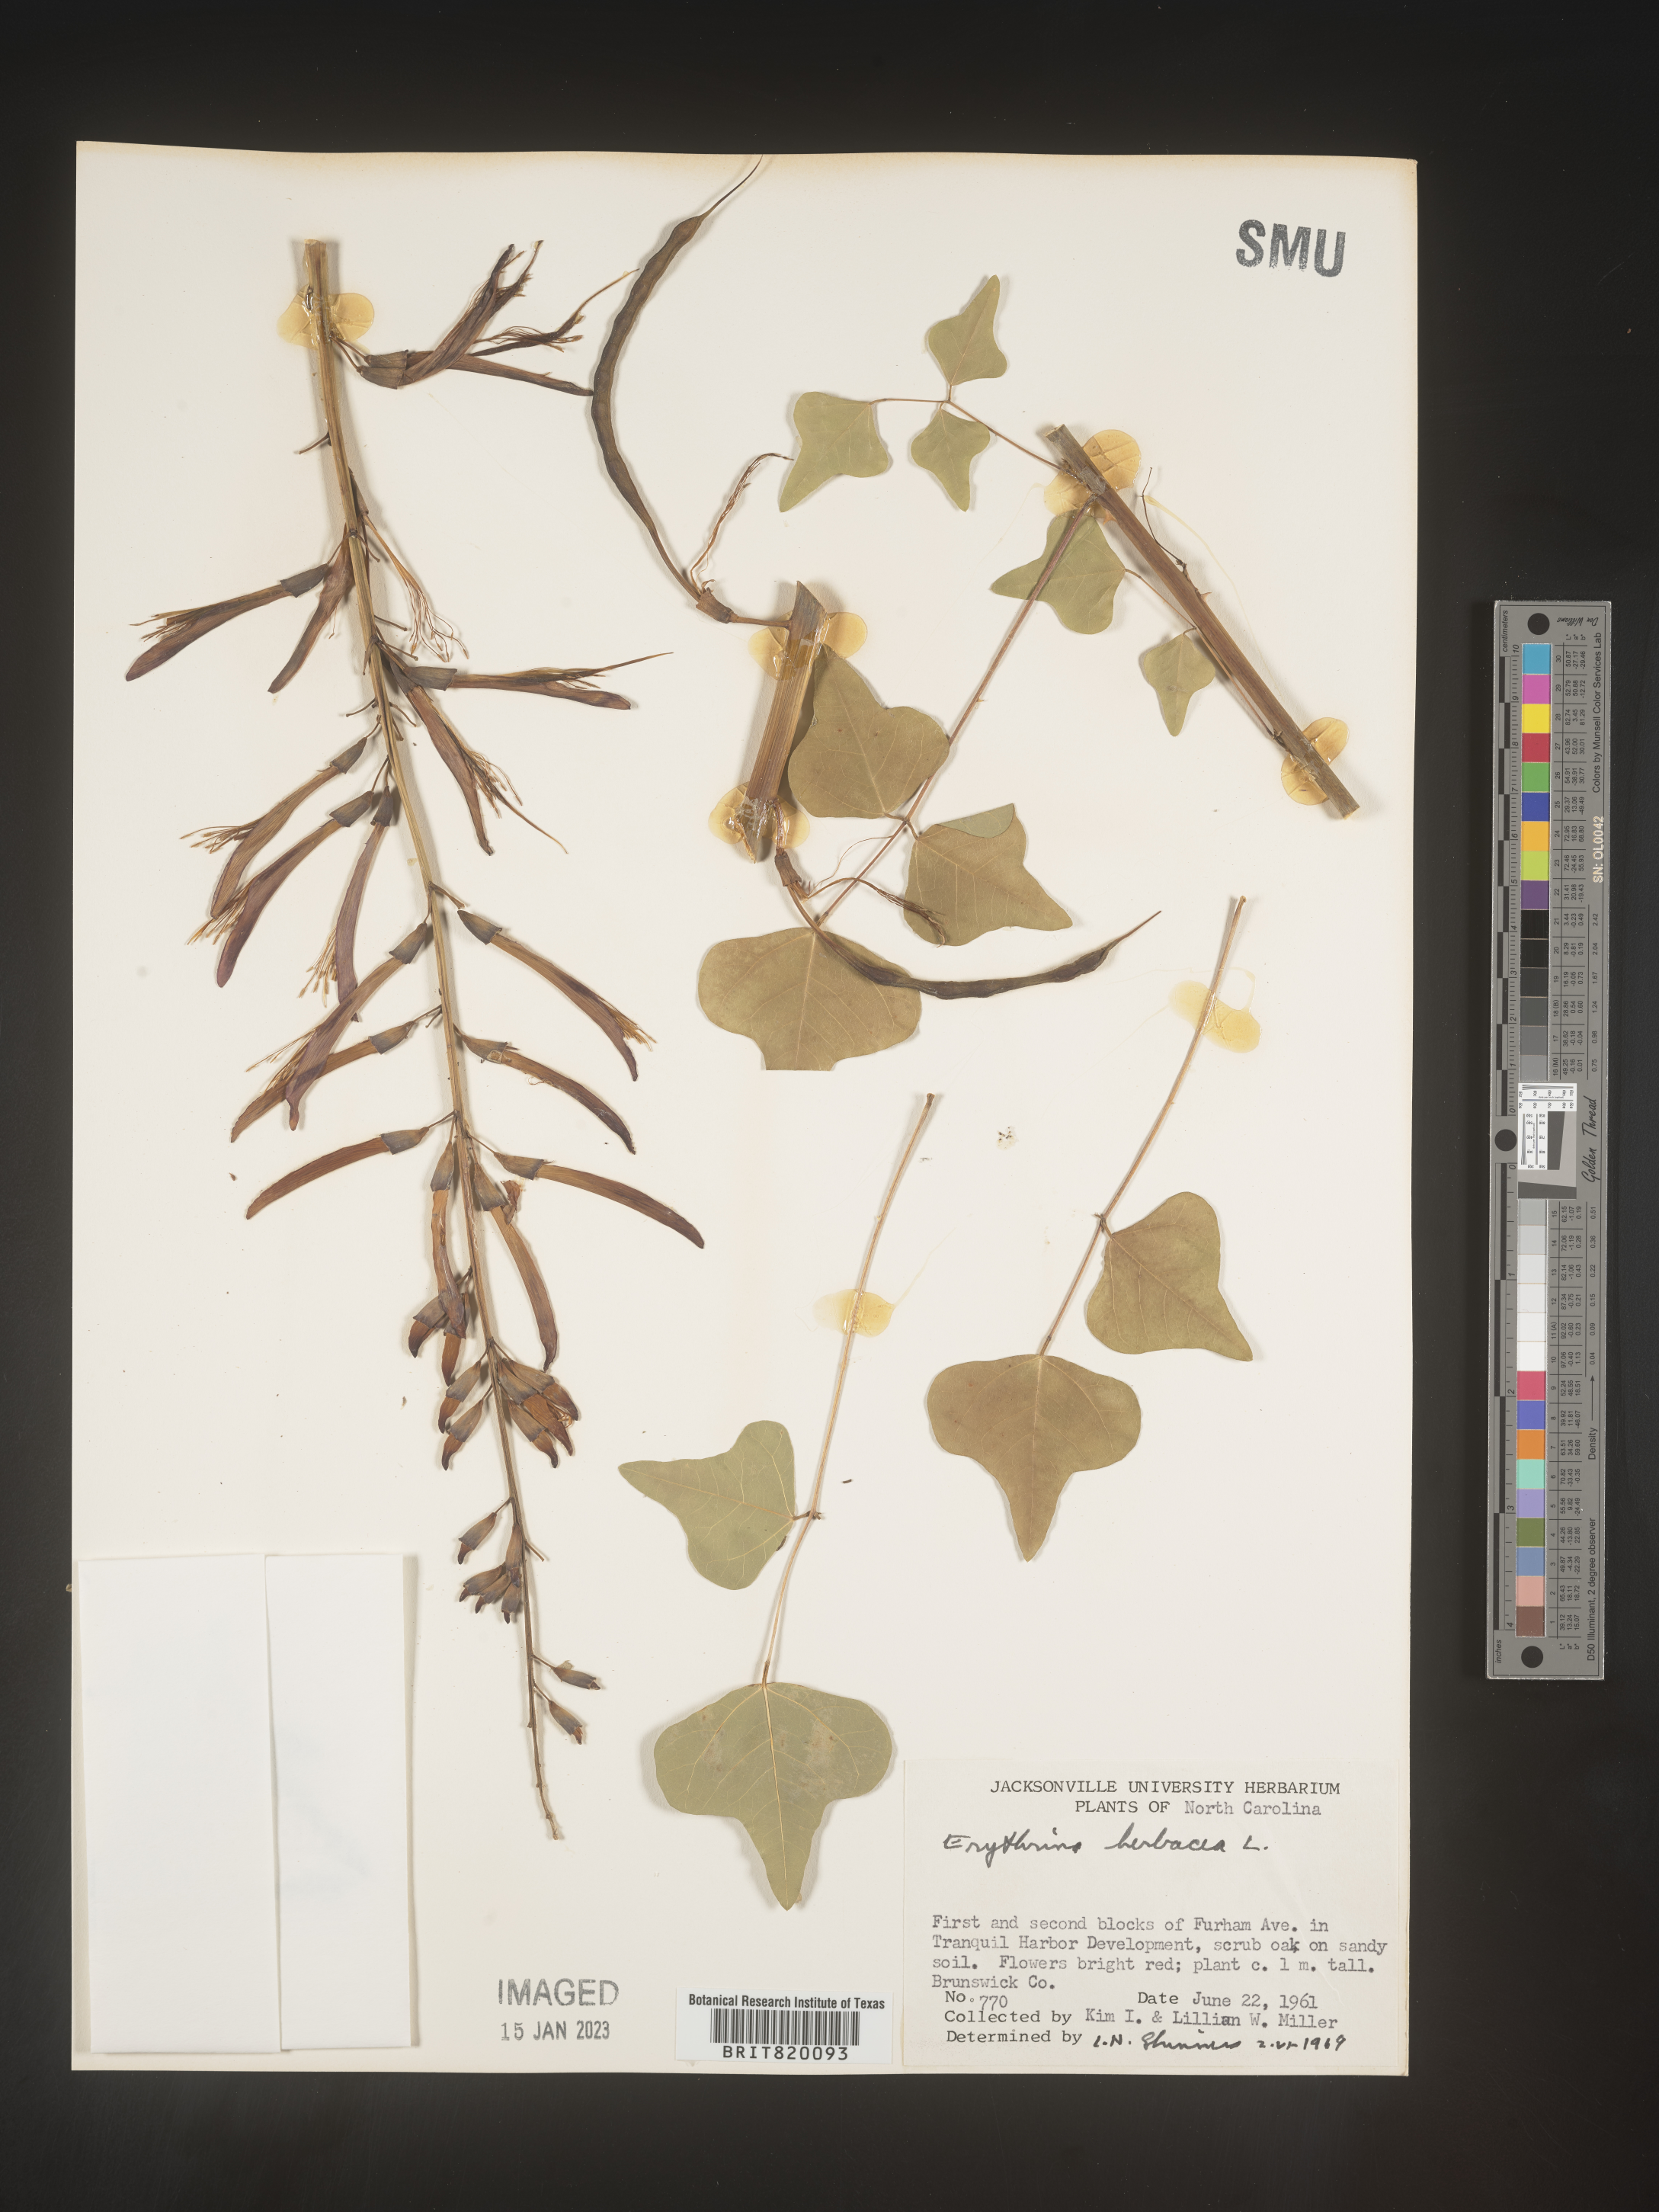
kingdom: Plantae
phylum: Tracheophyta
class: Magnoliopsida
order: Fabales
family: Fabaceae
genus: Erythrina
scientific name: Erythrina herbacea
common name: Coral-bean
